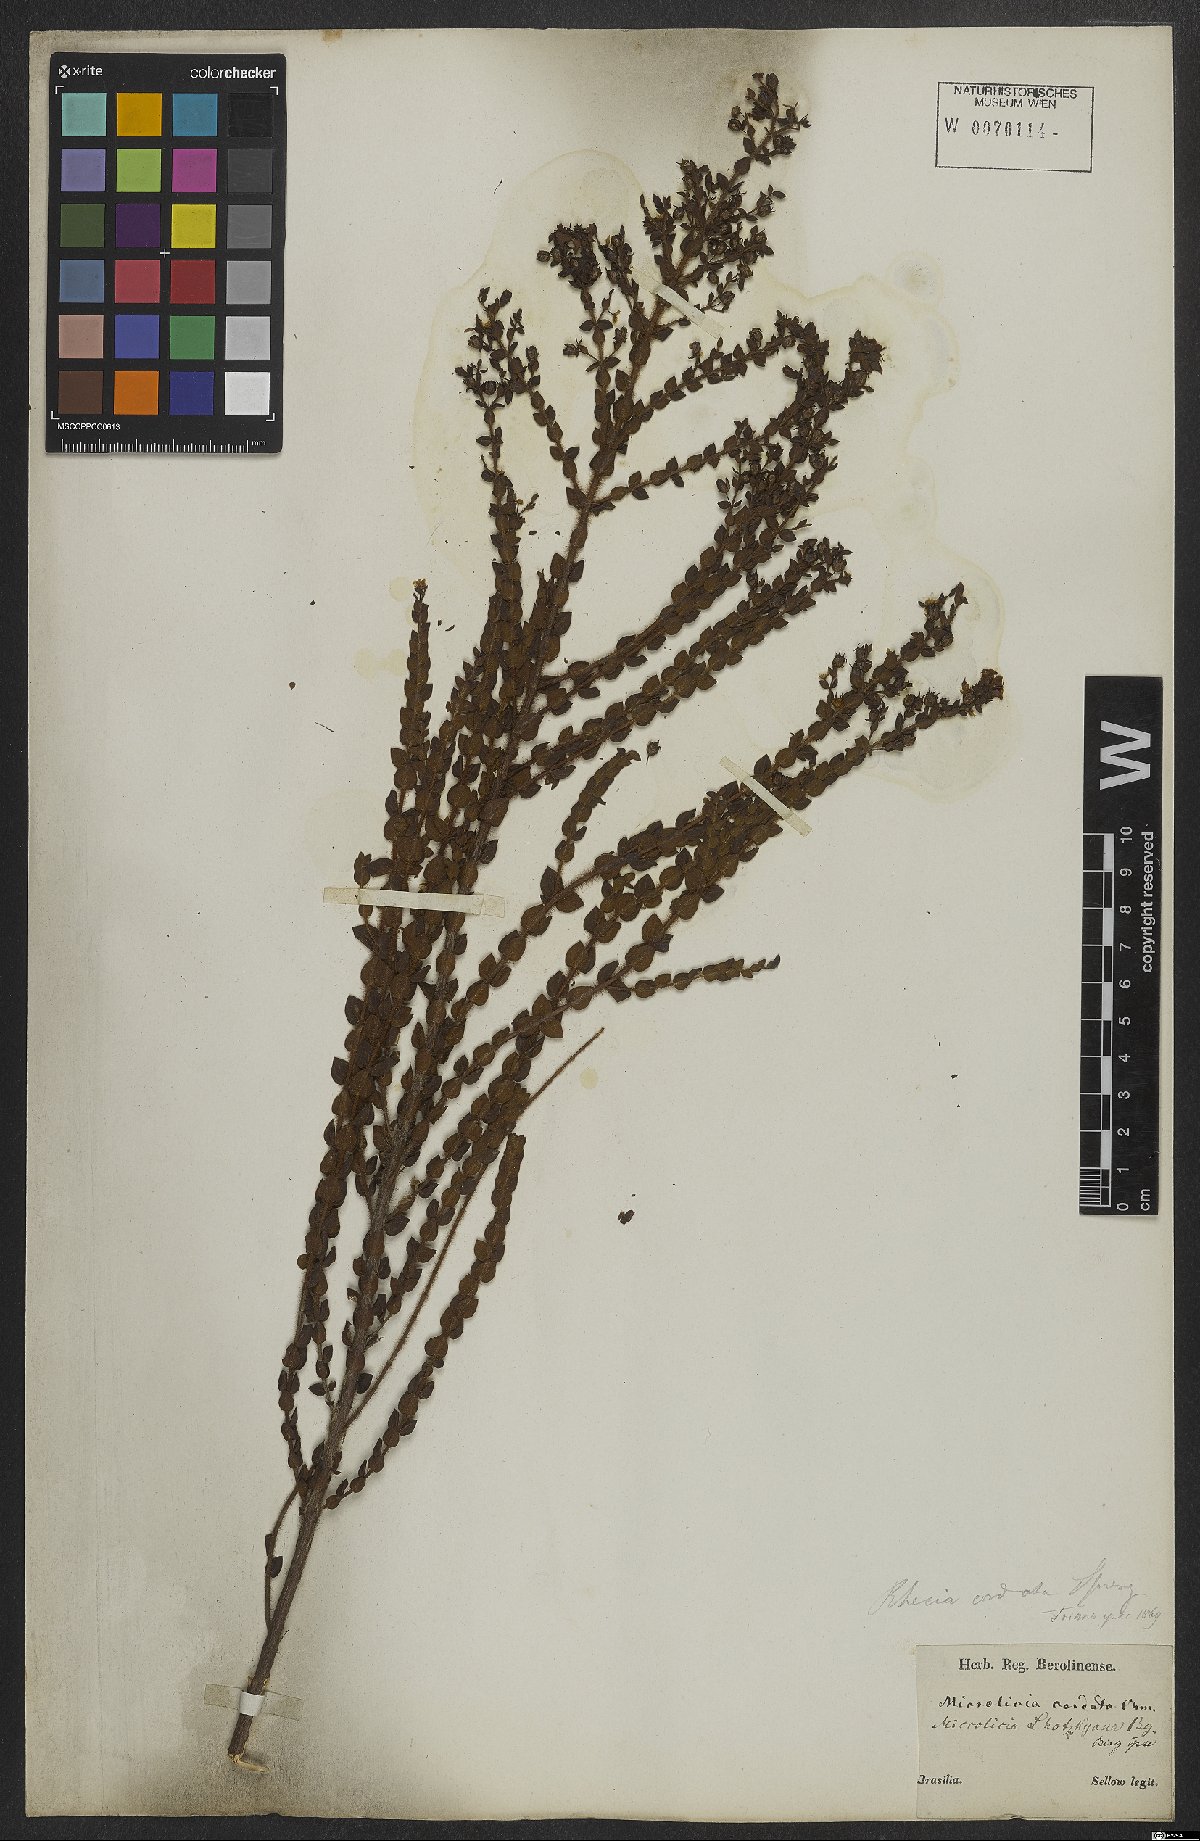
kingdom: Plantae
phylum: Tracheophyta
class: Magnoliopsida
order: Myrtales
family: Melastomataceae
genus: Microlicia
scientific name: Microlicia cordata
